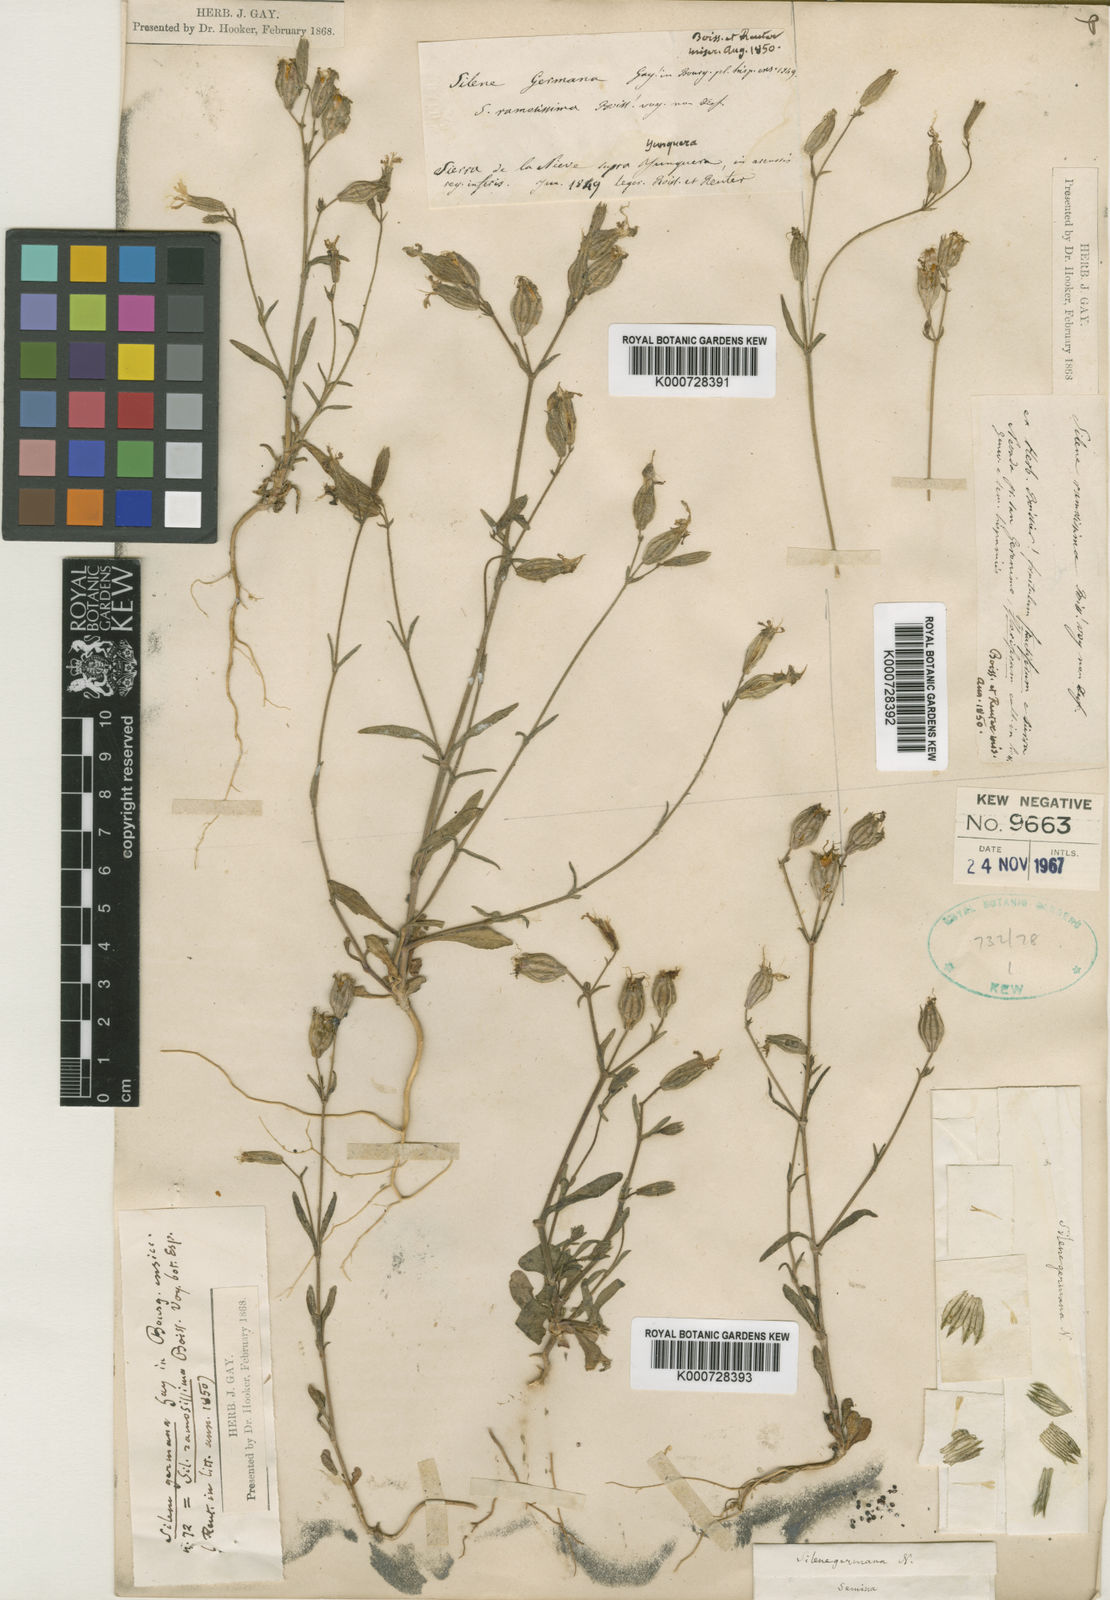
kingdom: Plantae
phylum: Tracheophyta
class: Magnoliopsida
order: Caryophyllales
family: Caryophyllaceae
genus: Silene
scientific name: Silene germana
